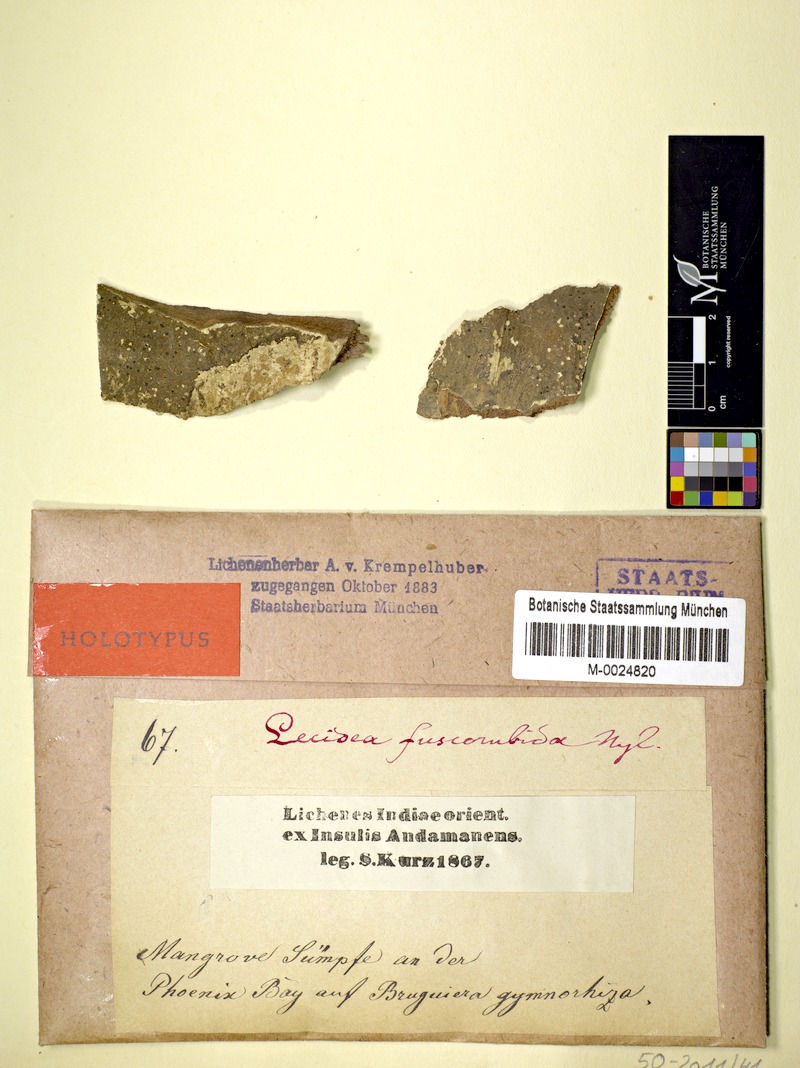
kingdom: Fungi
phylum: Ascomycota
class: Lecanoromycetes
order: Lecideales
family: Lecideaceae
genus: Lecidea
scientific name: Lecidea
